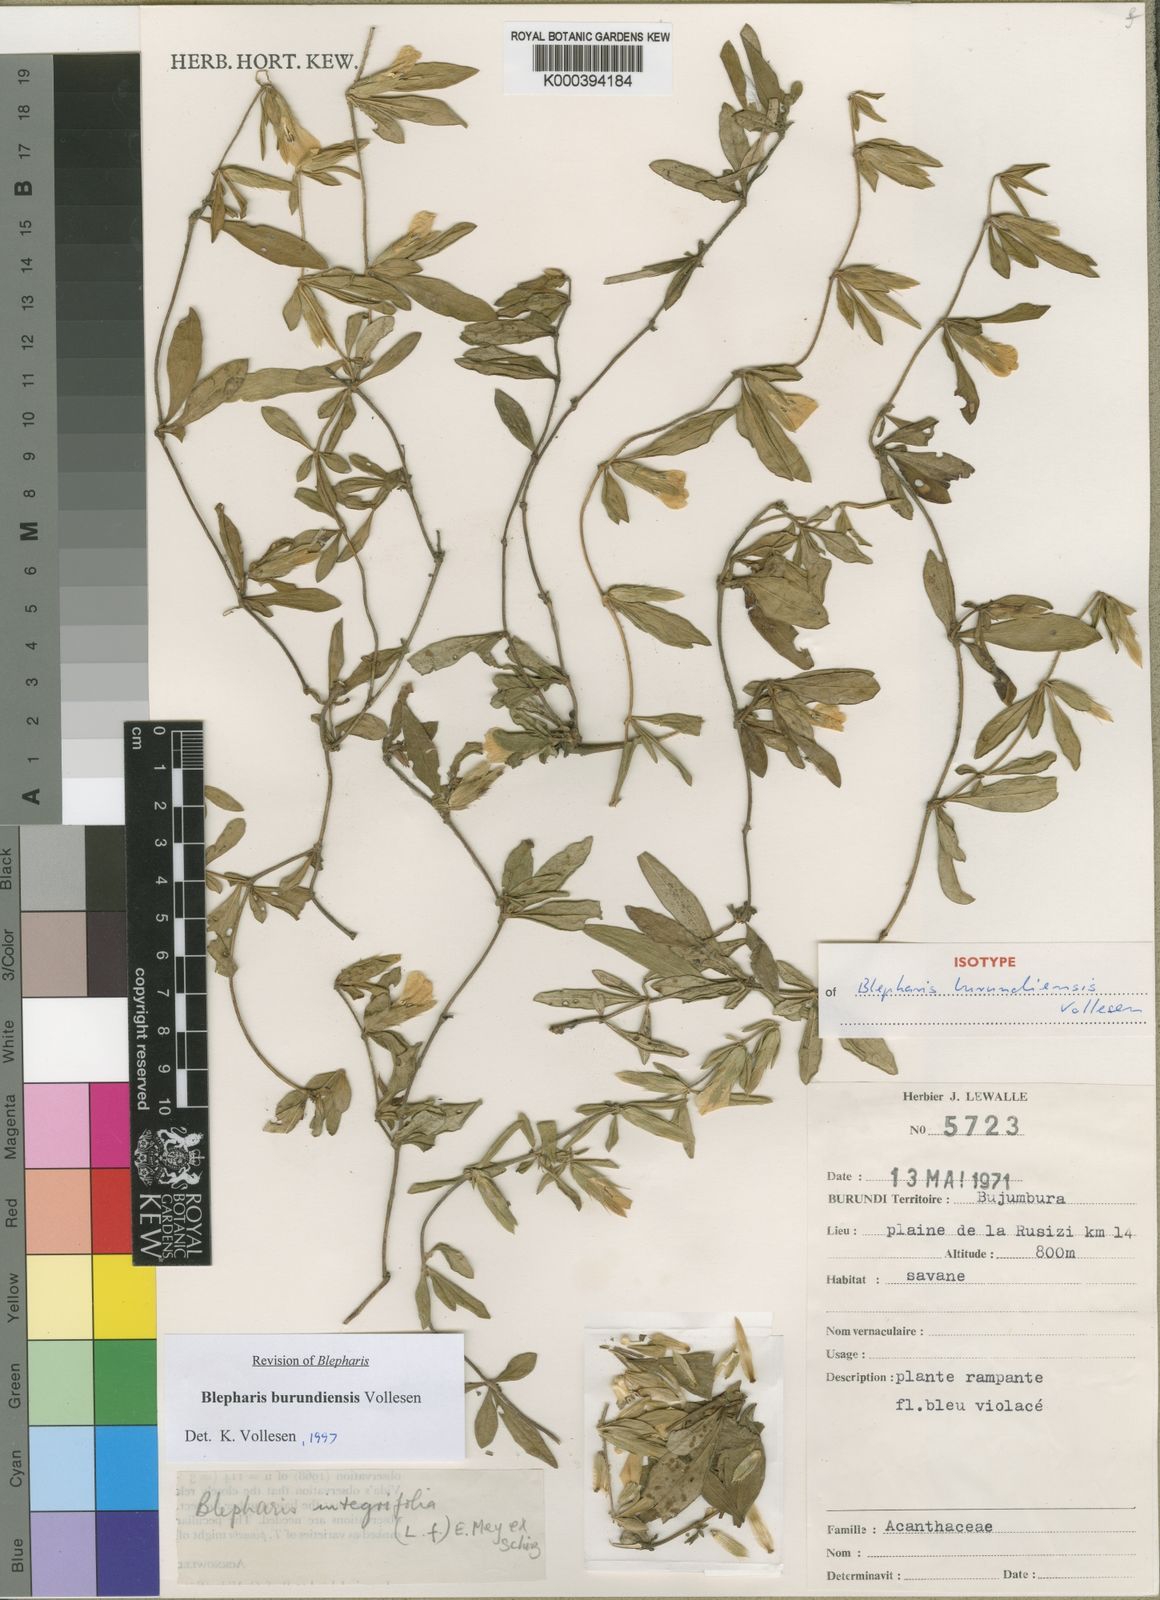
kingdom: Plantae
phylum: Tracheophyta
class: Magnoliopsida
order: Lamiales
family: Acanthaceae
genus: Blepharis
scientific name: Blepharis burundiensis
